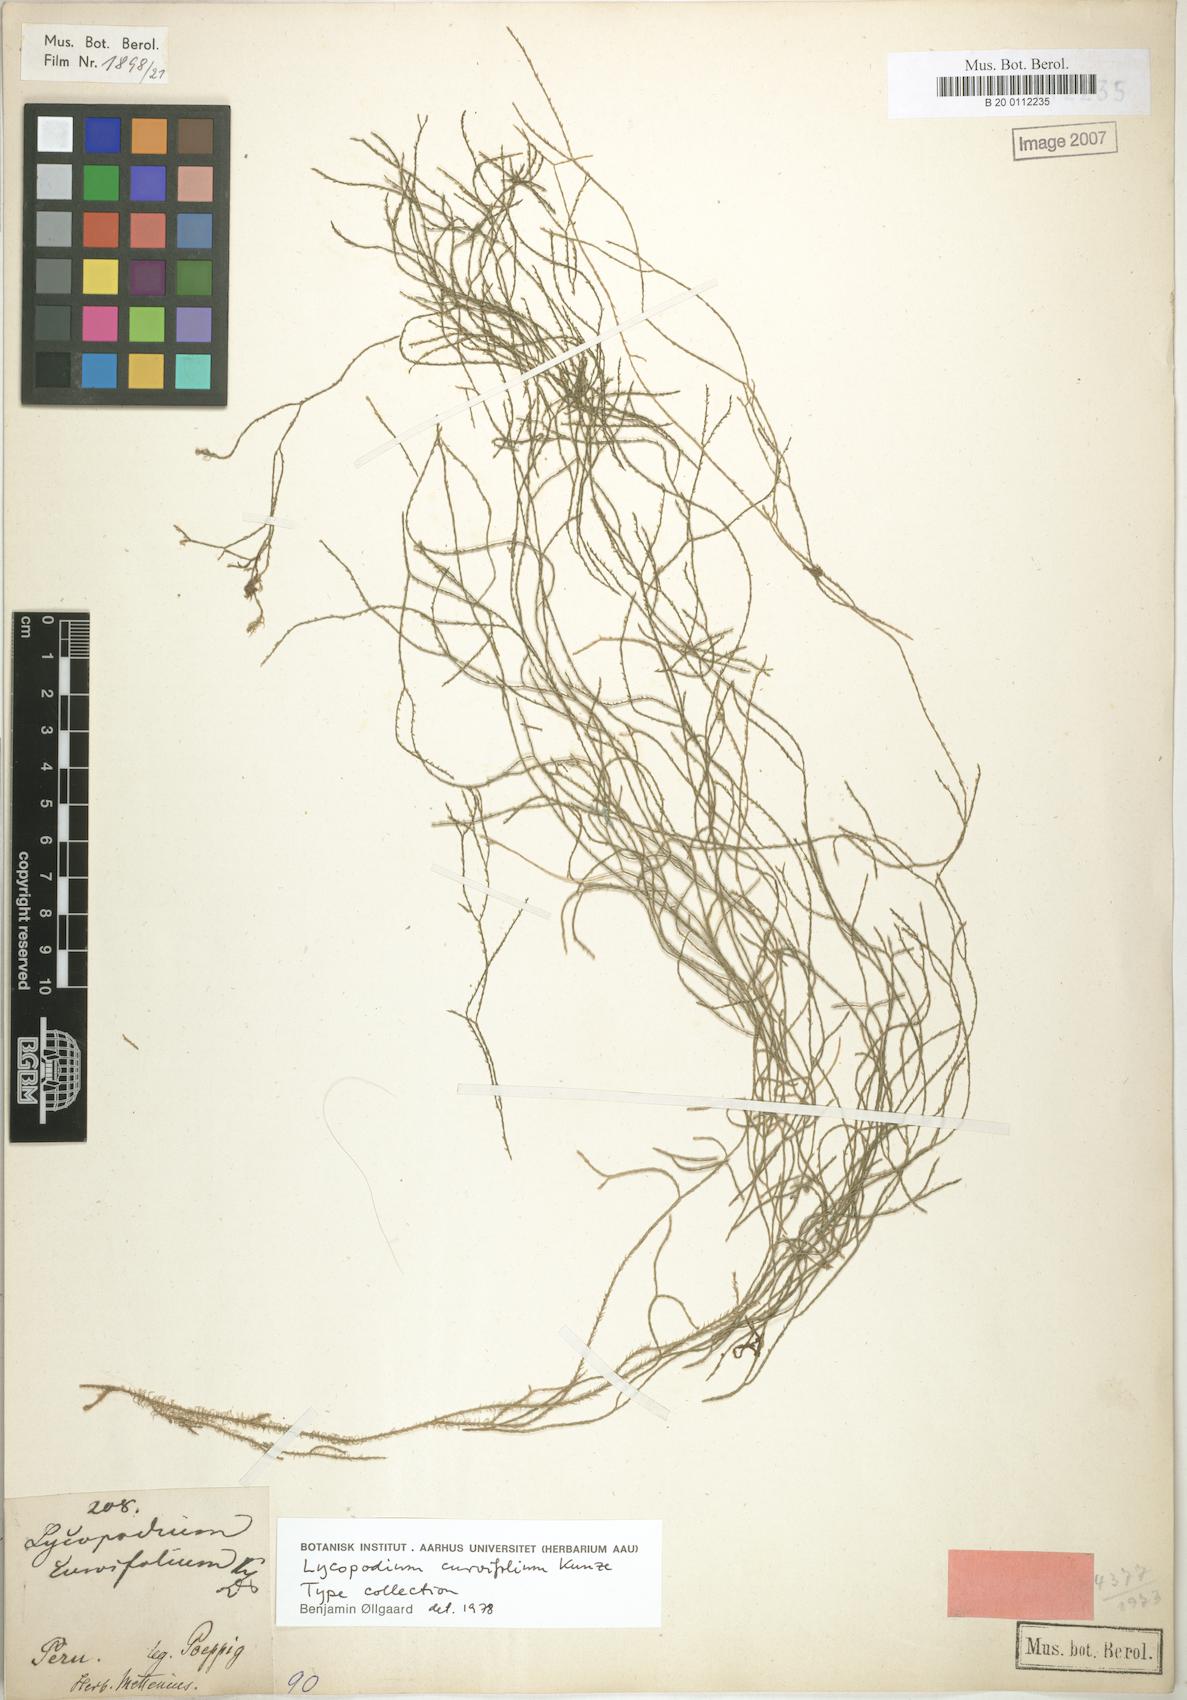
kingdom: Plantae
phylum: Tracheophyta
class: Lycopodiopsida
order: Lycopodiales
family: Lycopodiaceae
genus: Phlegmariurus
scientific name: Phlegmariurus curvifolius
